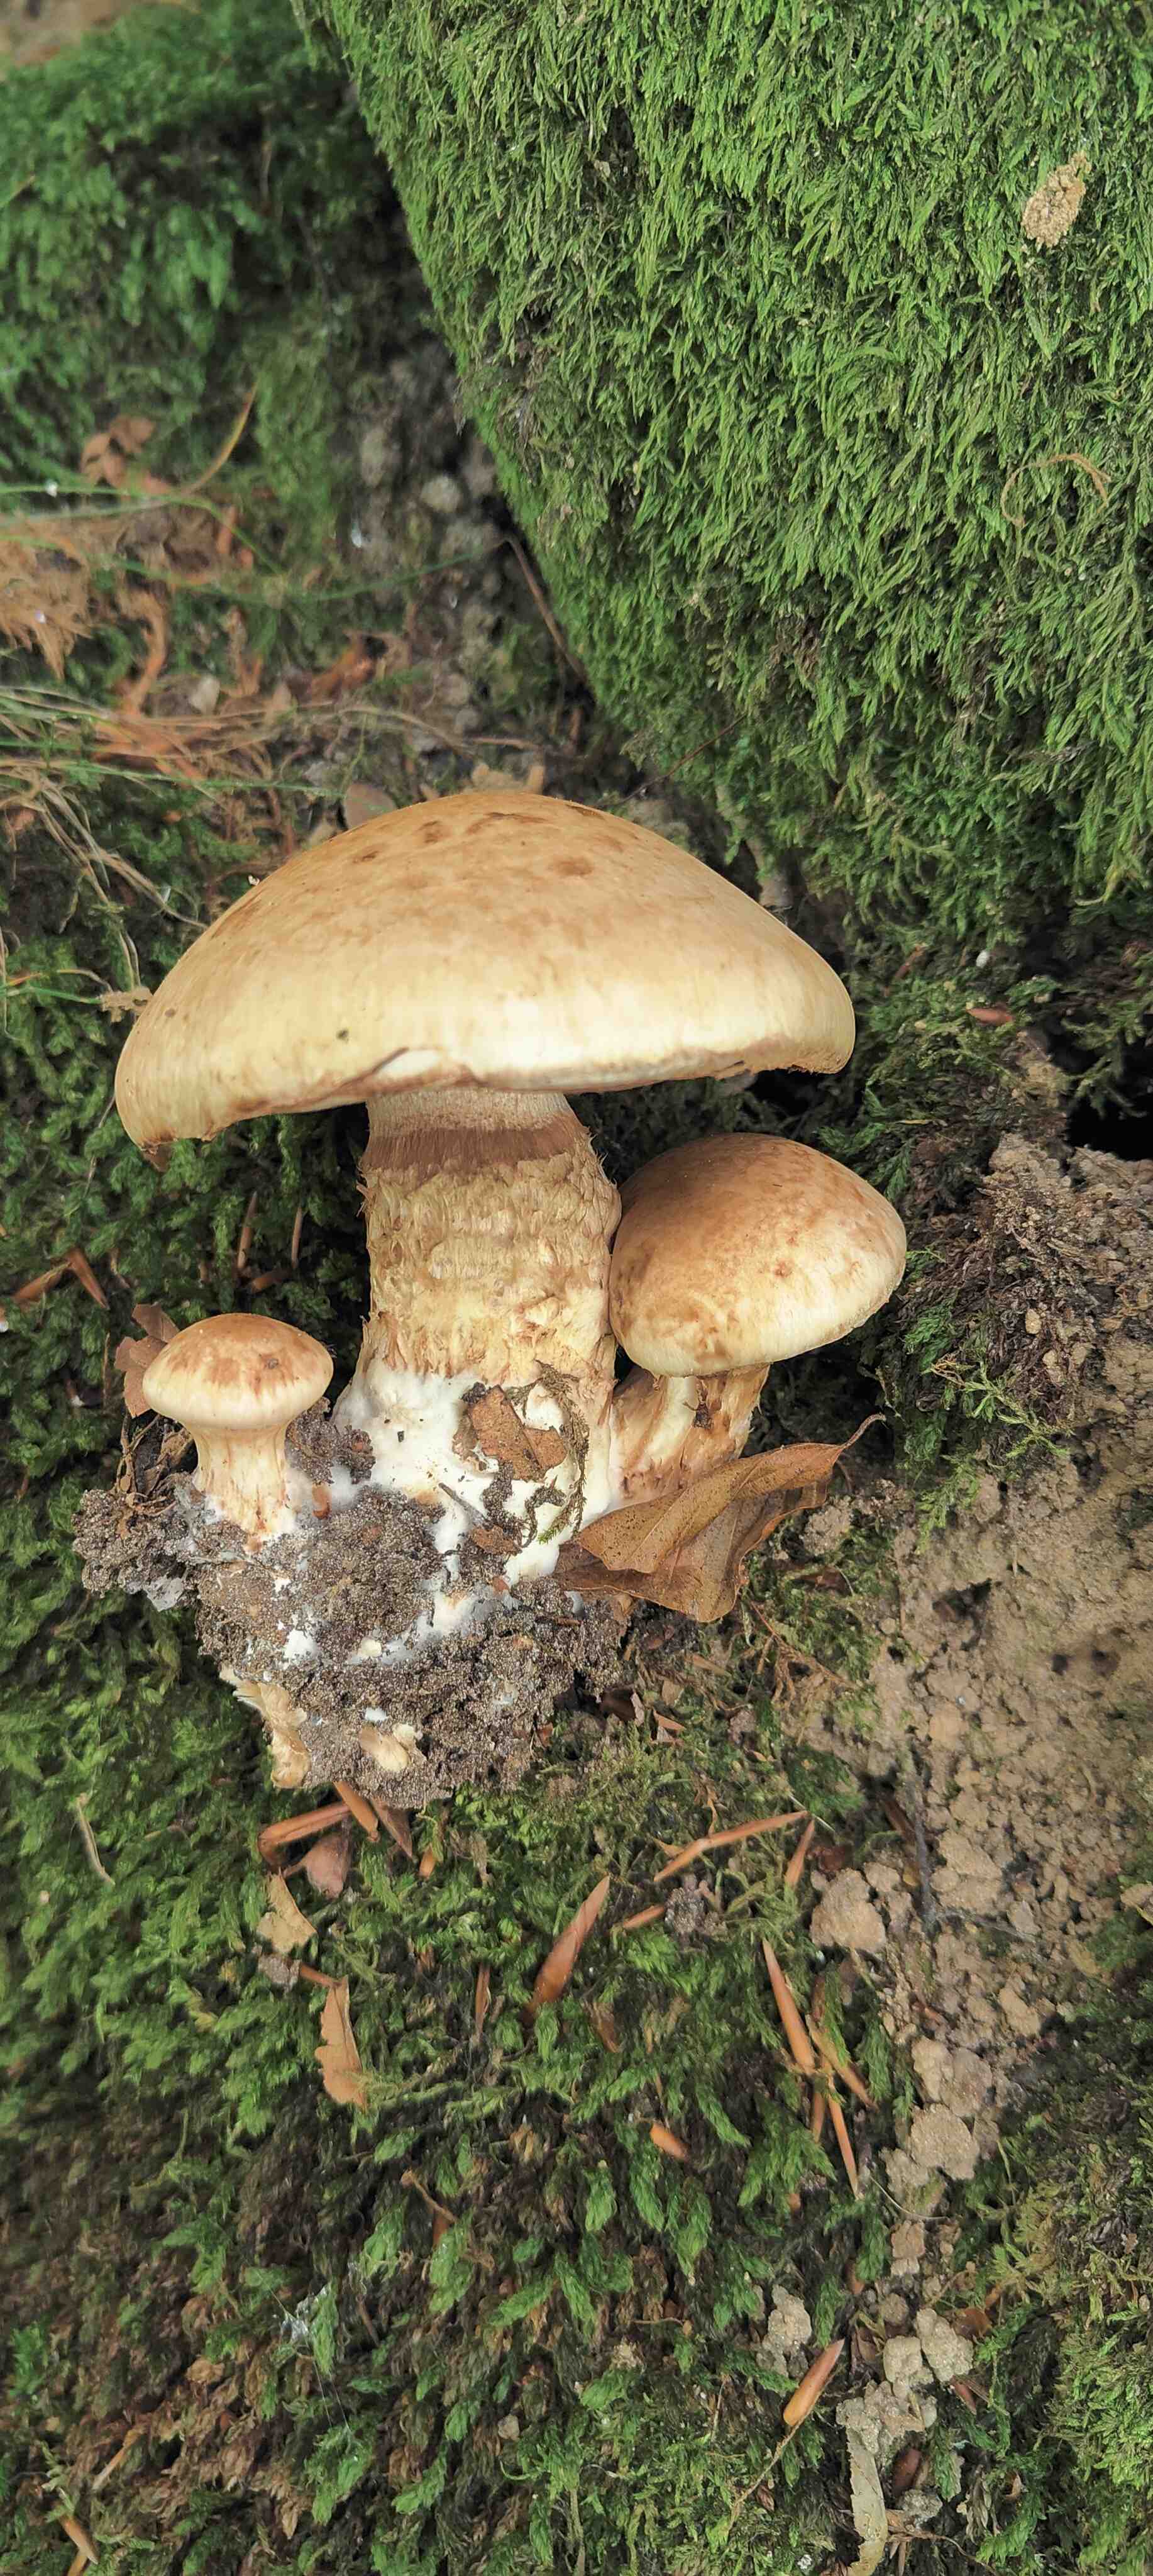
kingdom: Fungi
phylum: Basidiomycota
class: Agaricomycetes
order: Agaricales
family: Hymenogastraceae
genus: Hebeloma
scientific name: Hebeloma radicosum
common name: pælerods-tåreblad
